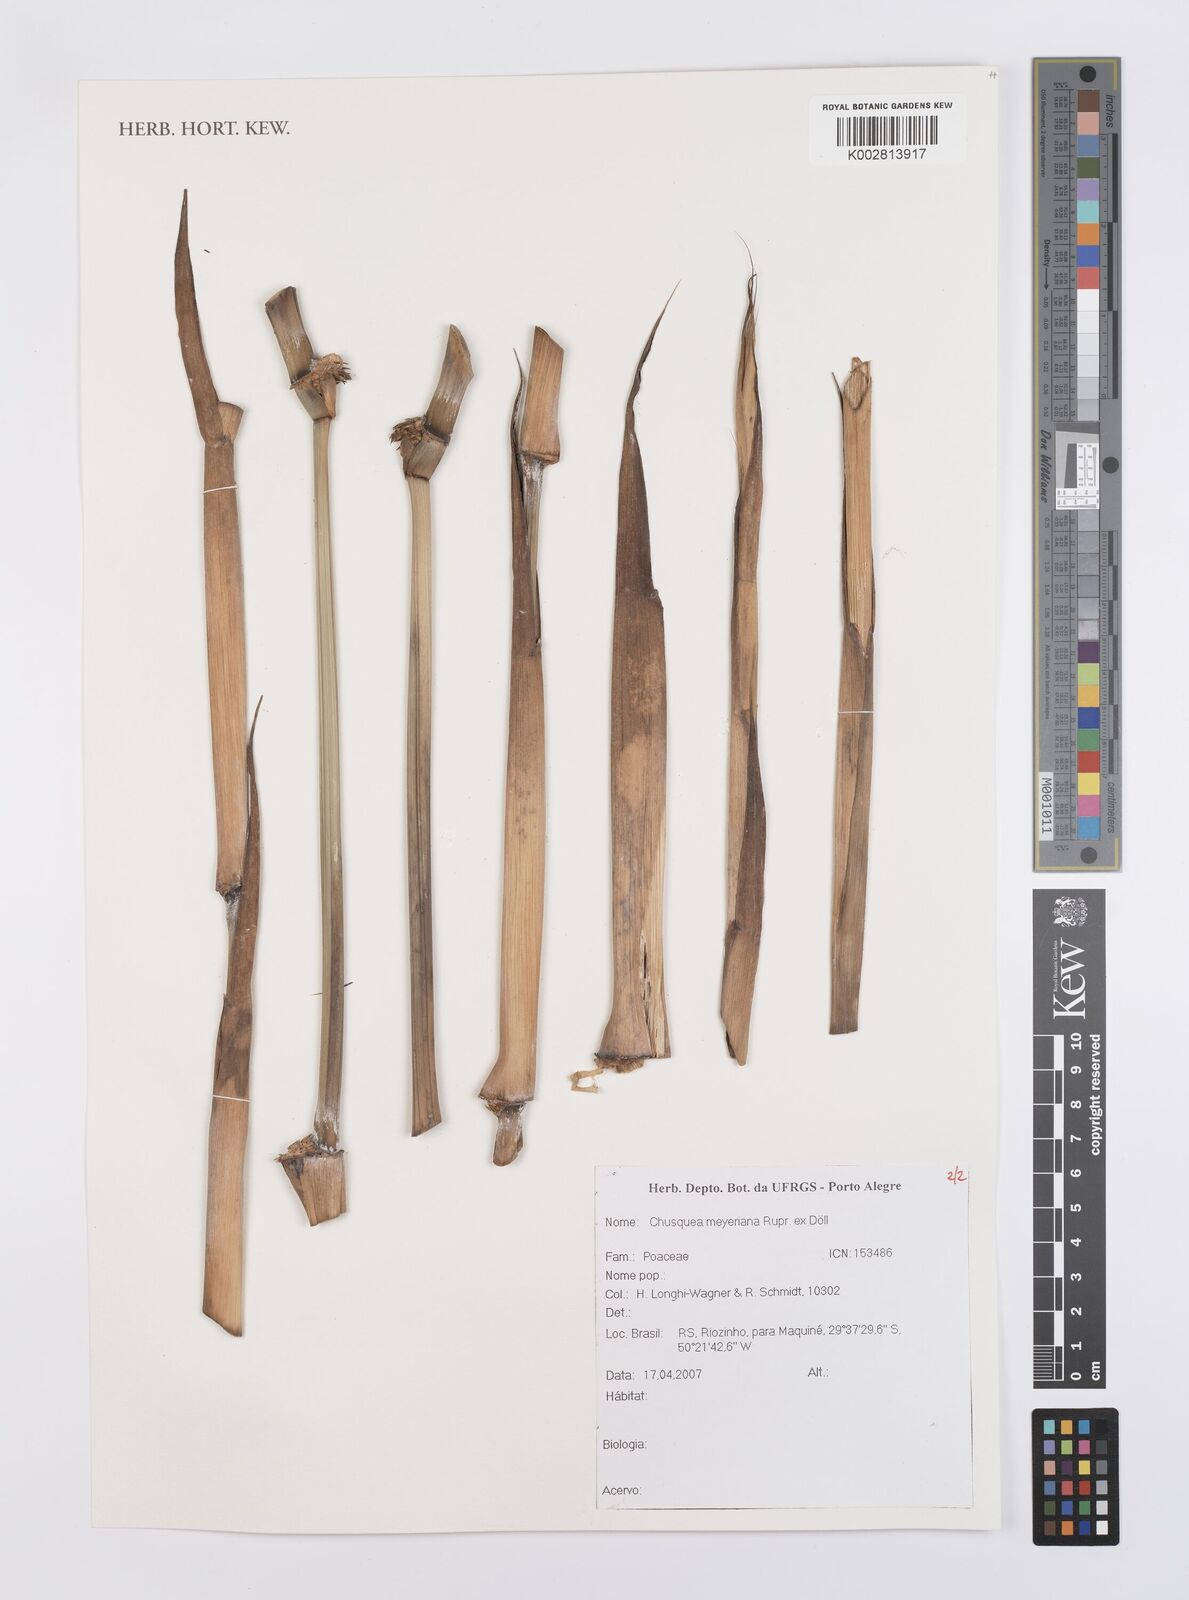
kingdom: Plantae
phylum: Tracheophyta
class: Liliopsida
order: Poales
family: Poaceae
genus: Chusquea
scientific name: Chusquea meyeriana
